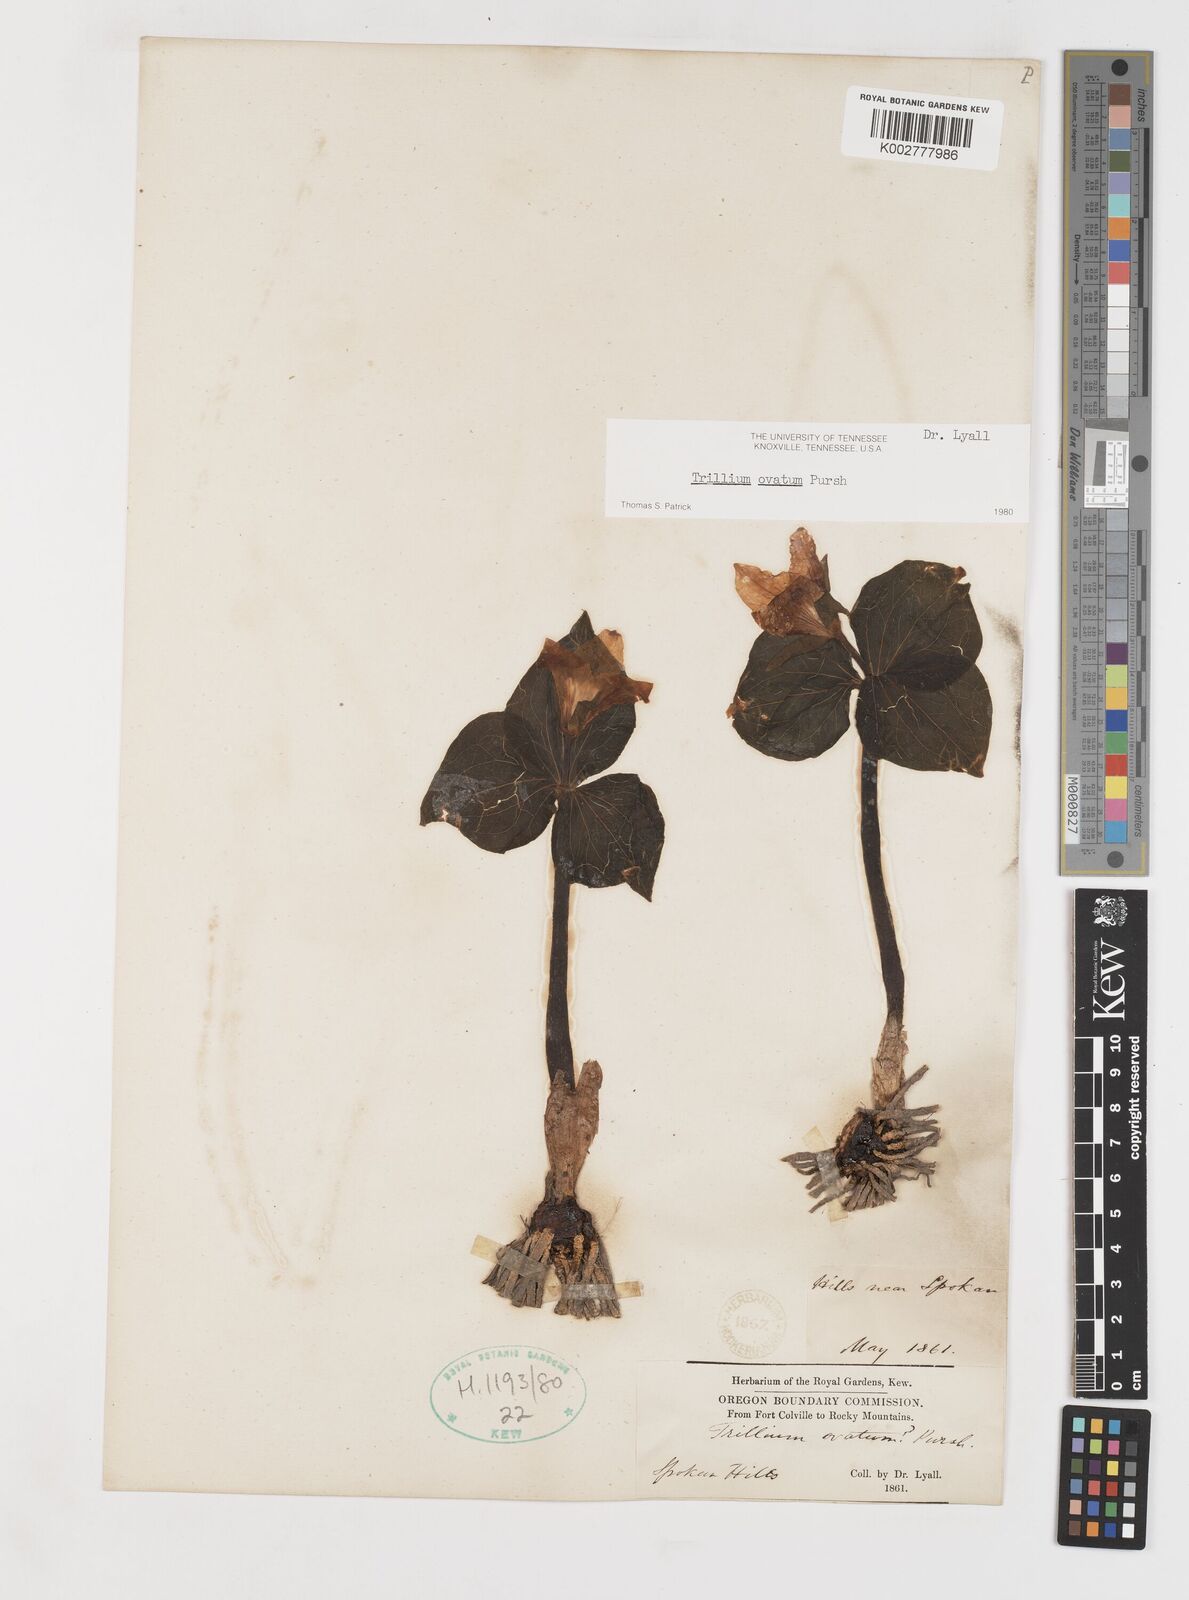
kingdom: Plantae
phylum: Tracheophyta
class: Liliopsida
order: Liliales
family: Melanthiaceae
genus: Trillium
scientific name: Trillium ovatum
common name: Pacific trillium
